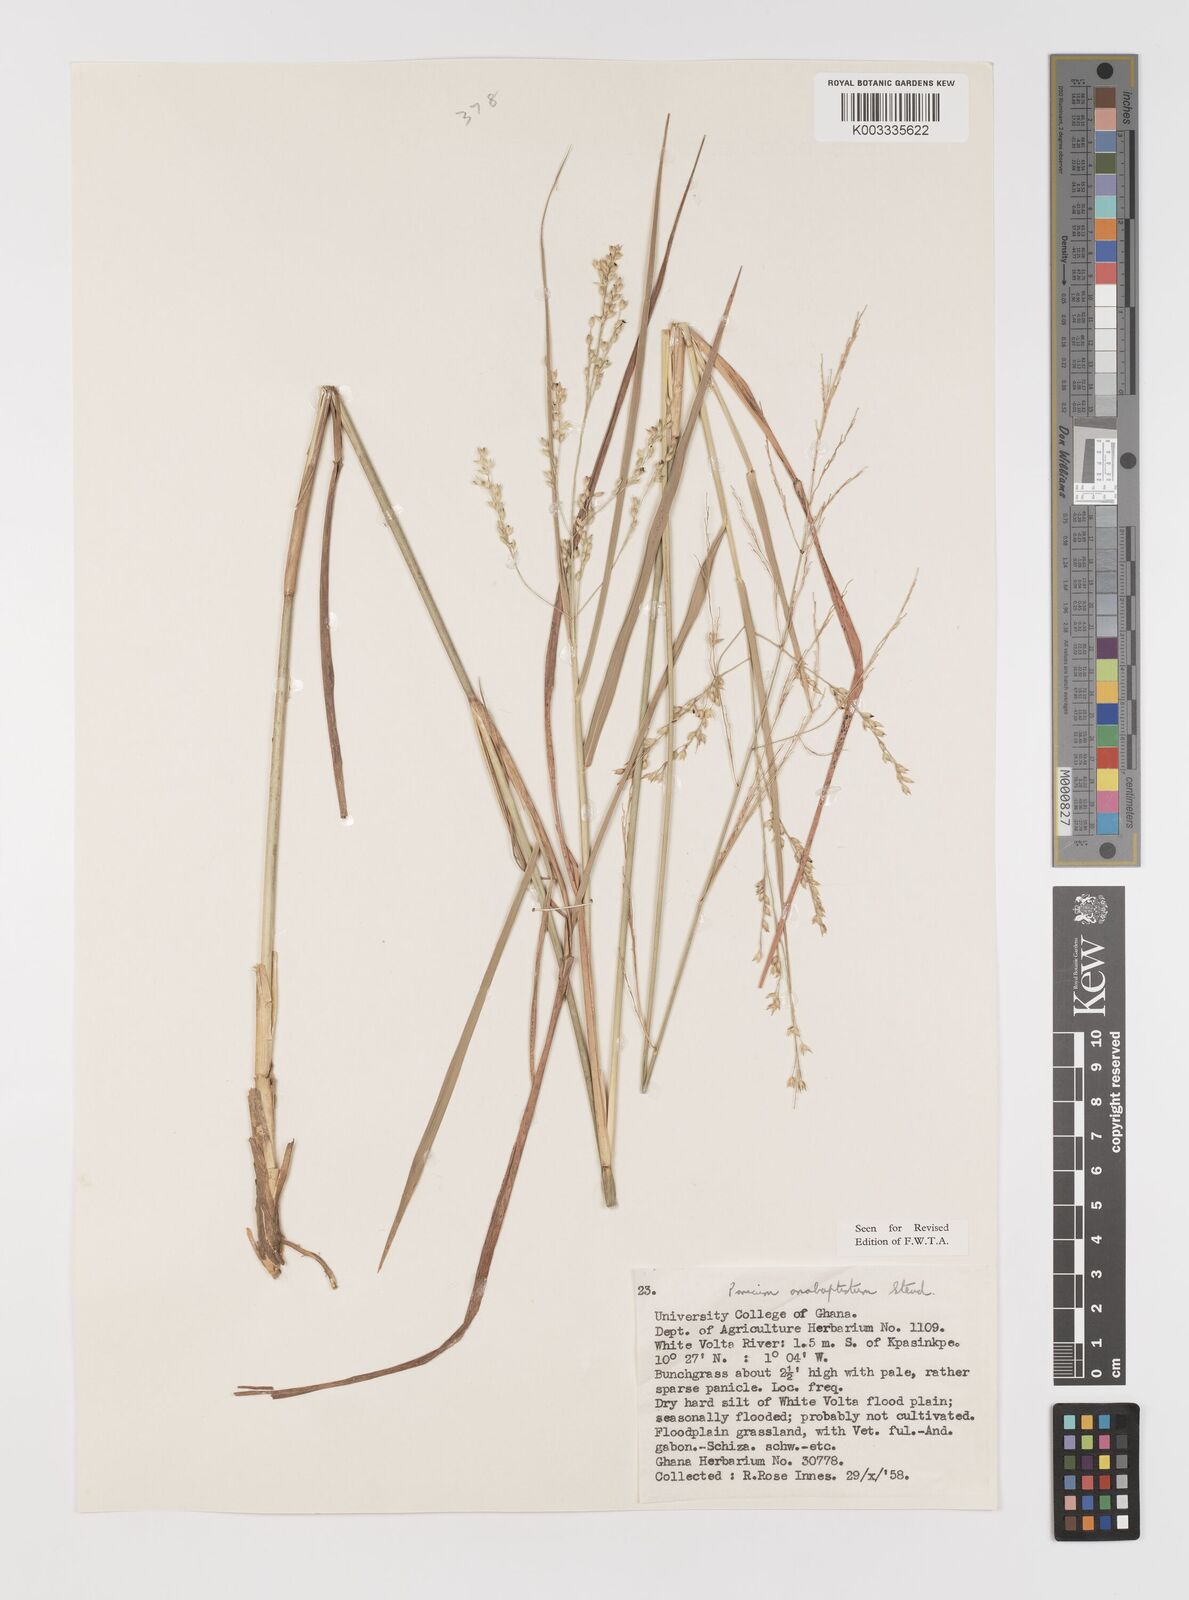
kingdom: Plantae
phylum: Tracheophyta
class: Liliopsida
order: Poales
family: Poaceae
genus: Panicum
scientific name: Panicum anabaptistum
